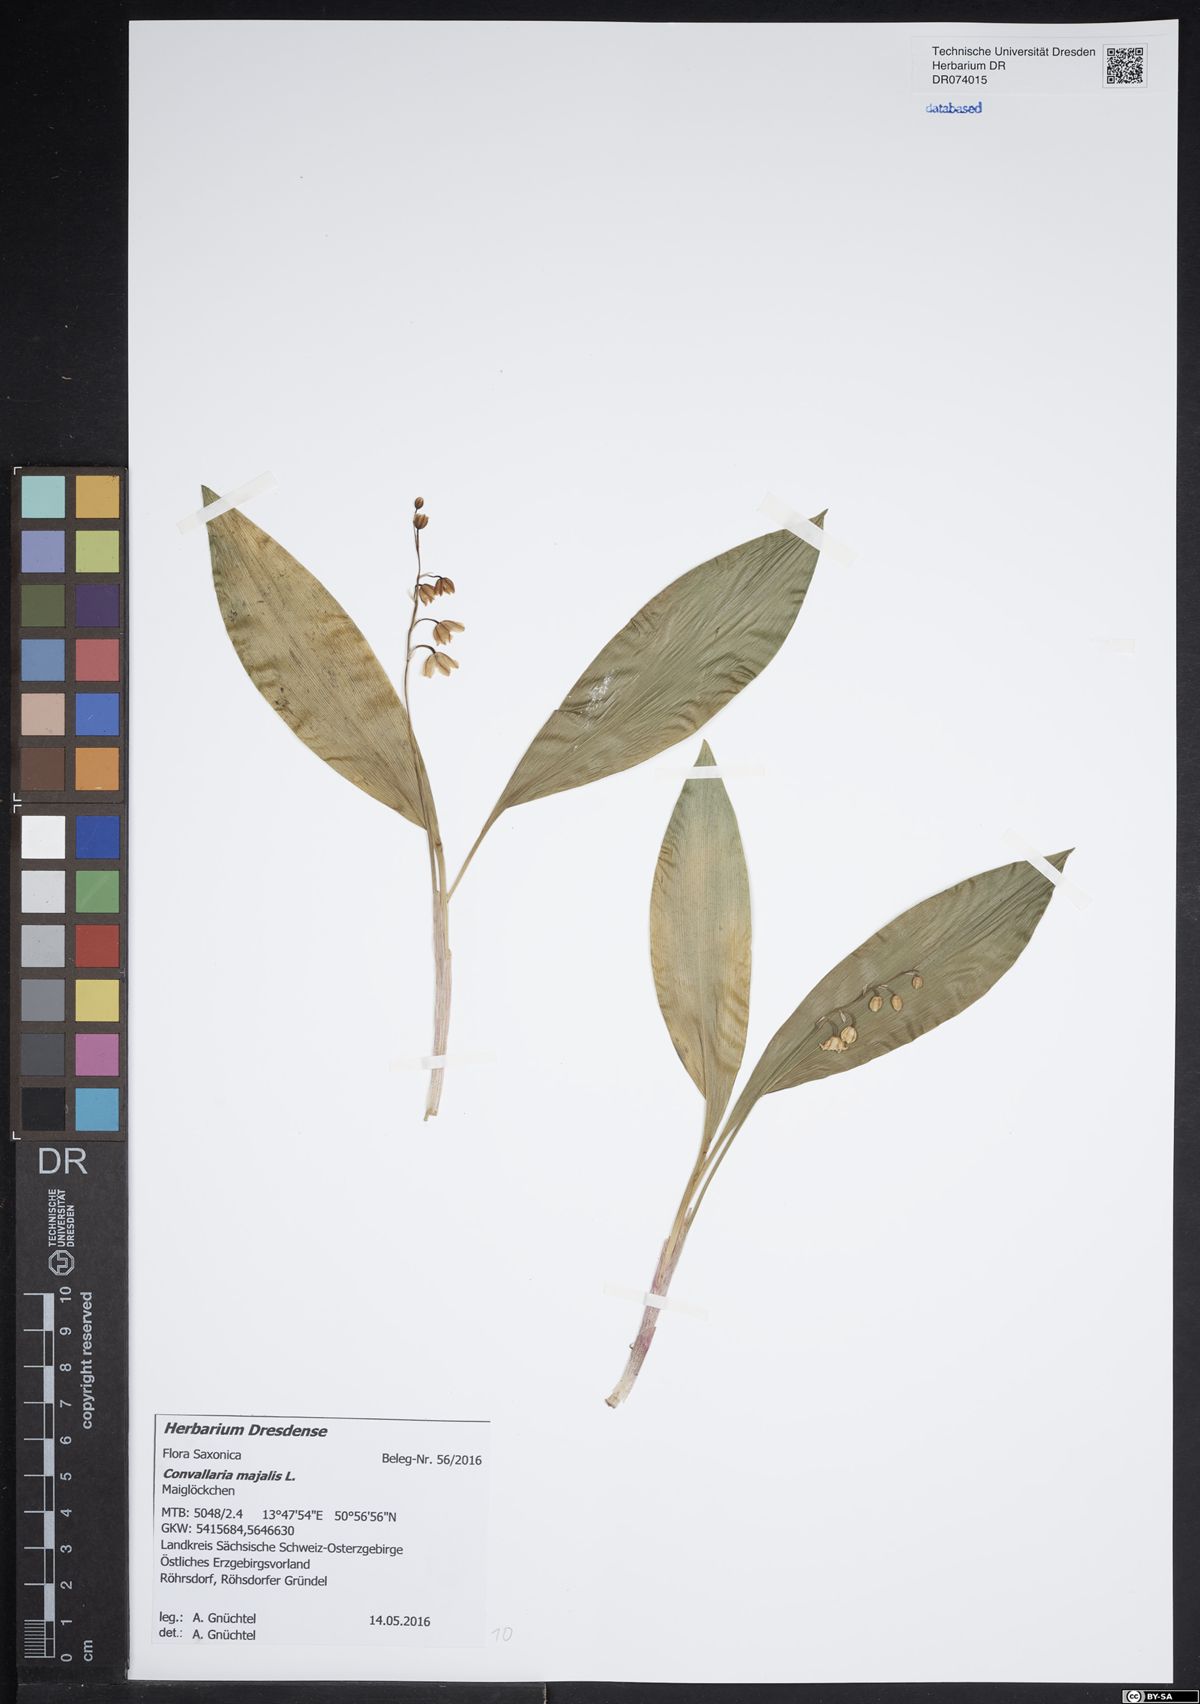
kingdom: Plantae
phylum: Tracheophyta
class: Liliopsida
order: Asparagales
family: Asparagaceae
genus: Convallaria
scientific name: Convallaria majalis
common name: Lily-of-the-valley
